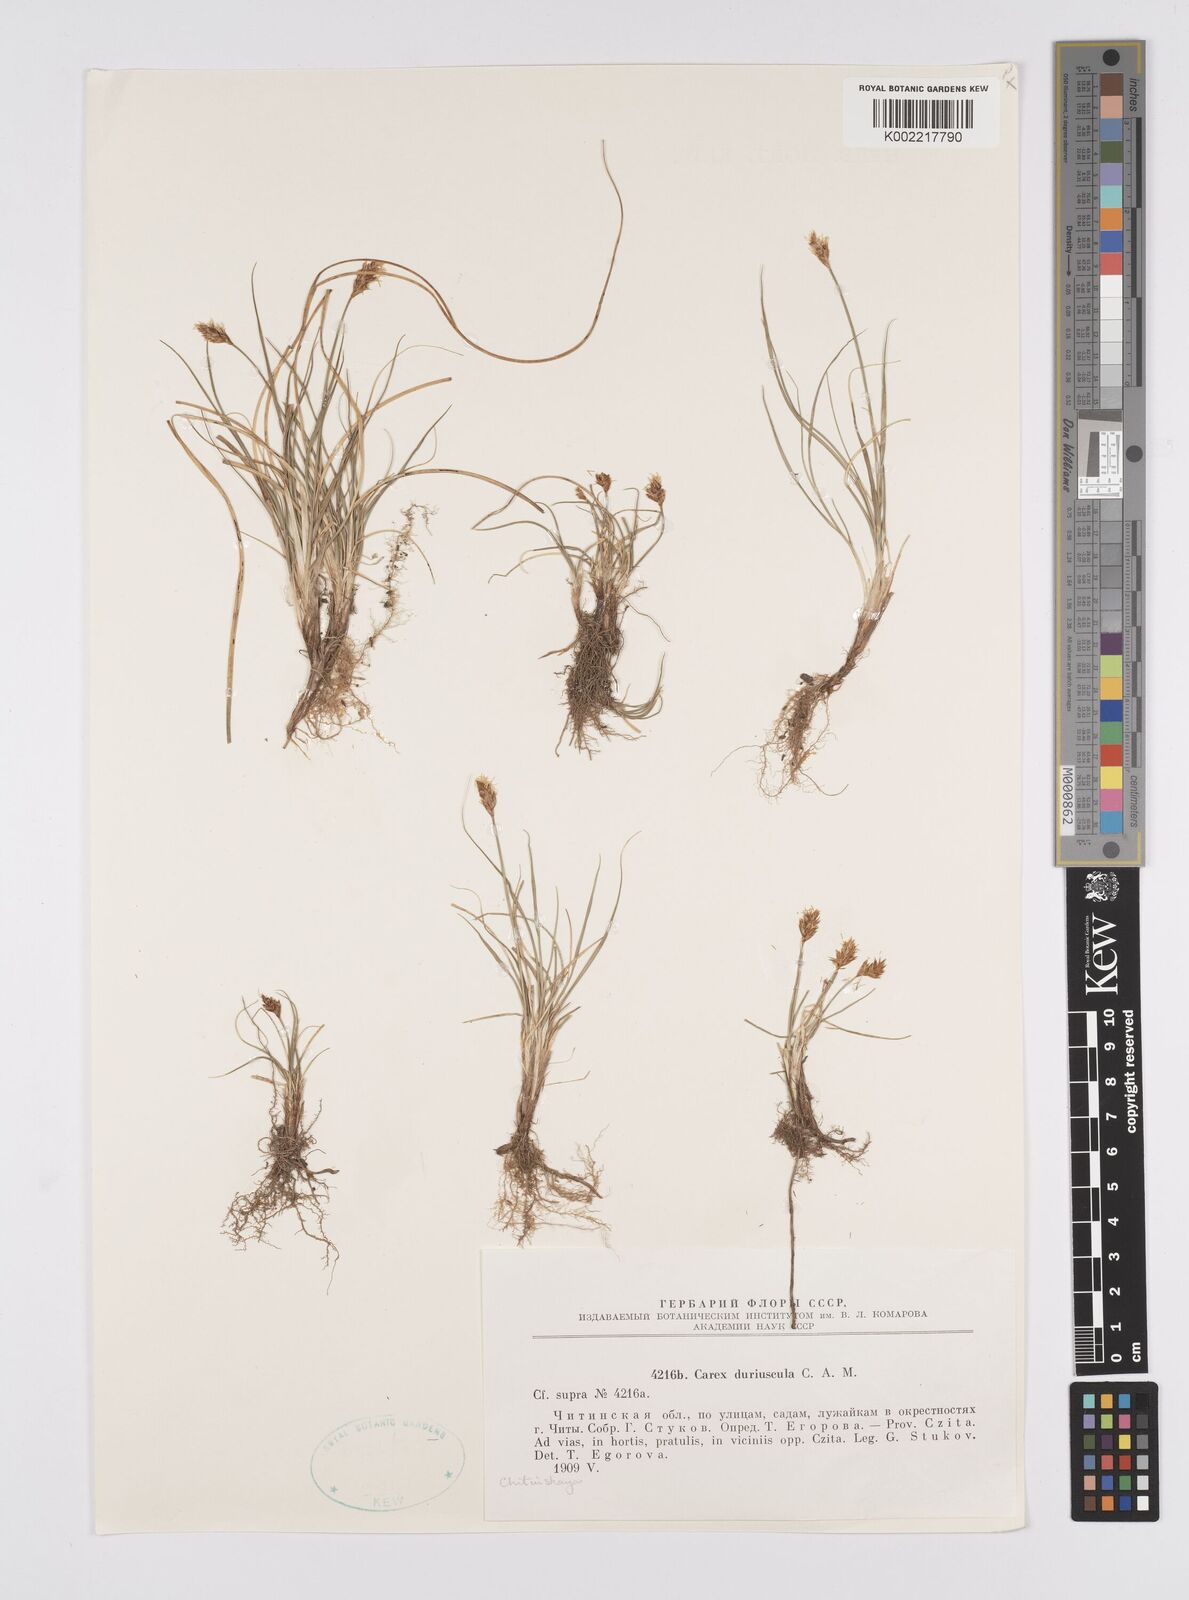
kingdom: Plantae
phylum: Tracheophyta
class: Liliopsida
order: Poales
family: Cyperaceae
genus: Carex
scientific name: Carex stenophylla
